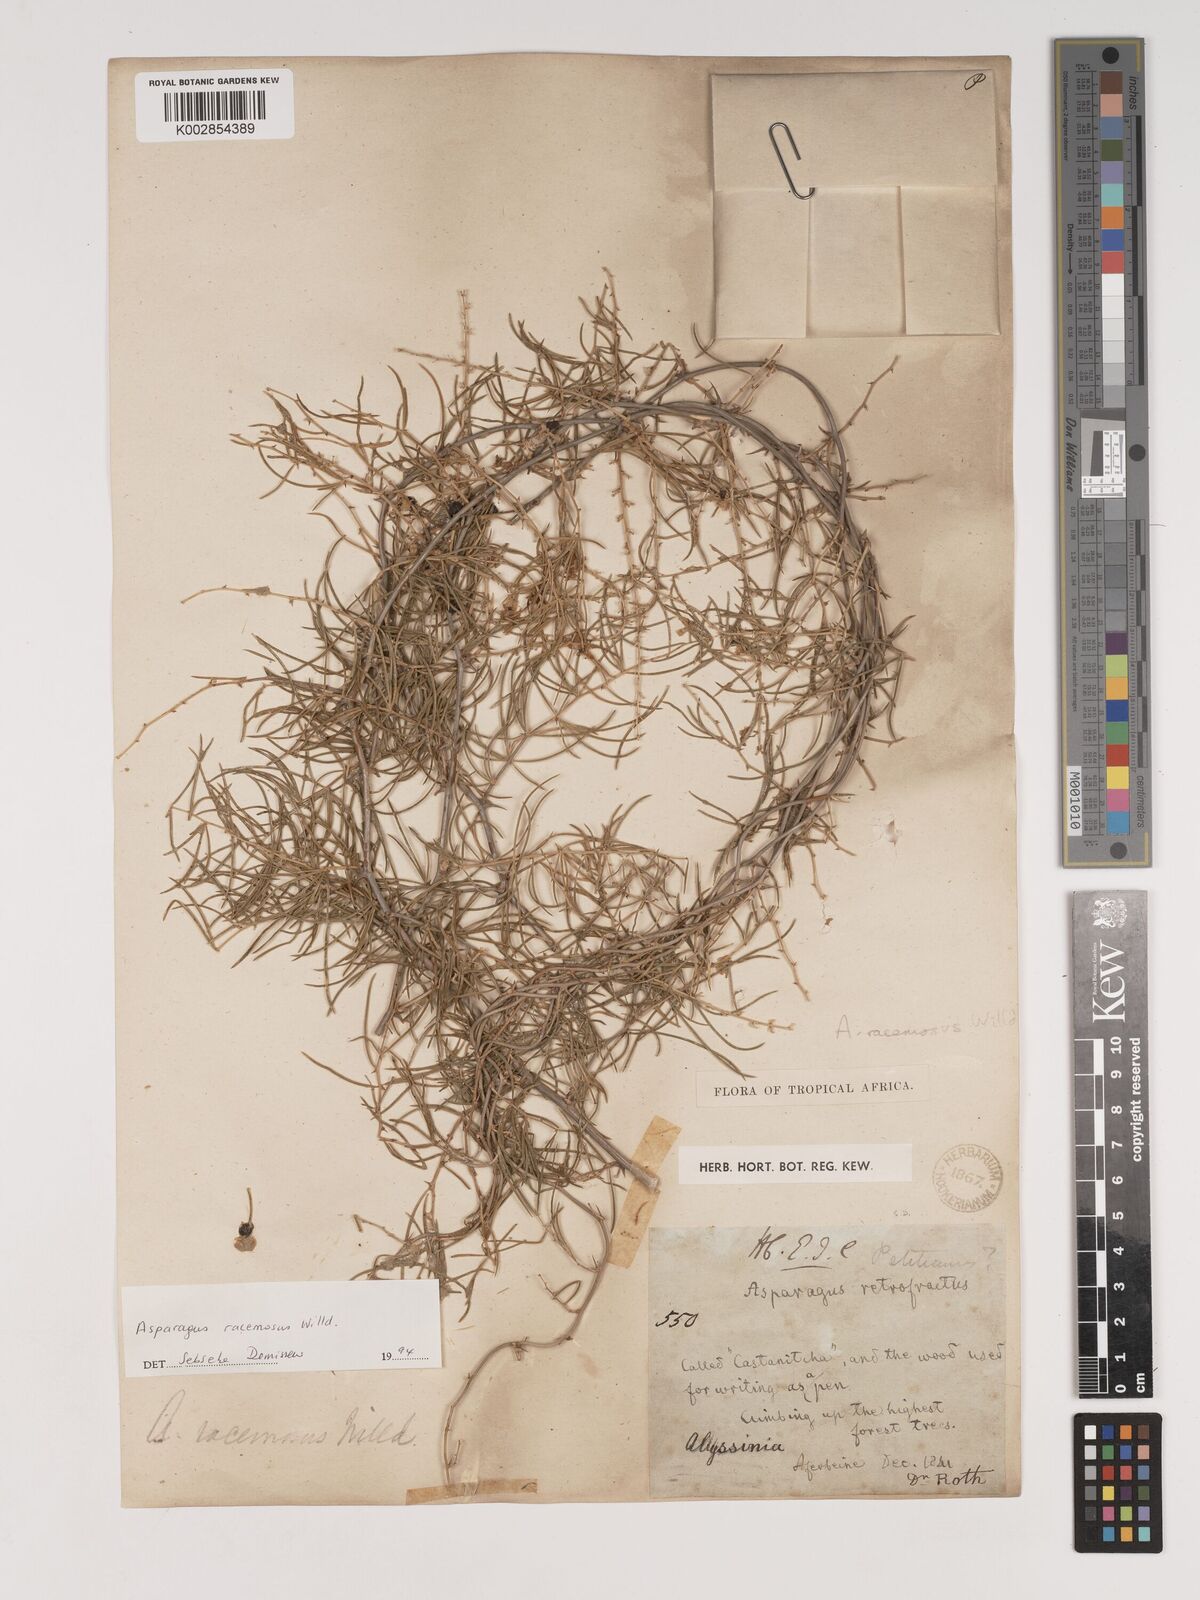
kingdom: Plantae
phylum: Tracheophyta
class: Liliopsida
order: Asparagales
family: Asparagaceae
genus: Asparagus
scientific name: Asparagus racemosus
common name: Asparagus-fern
